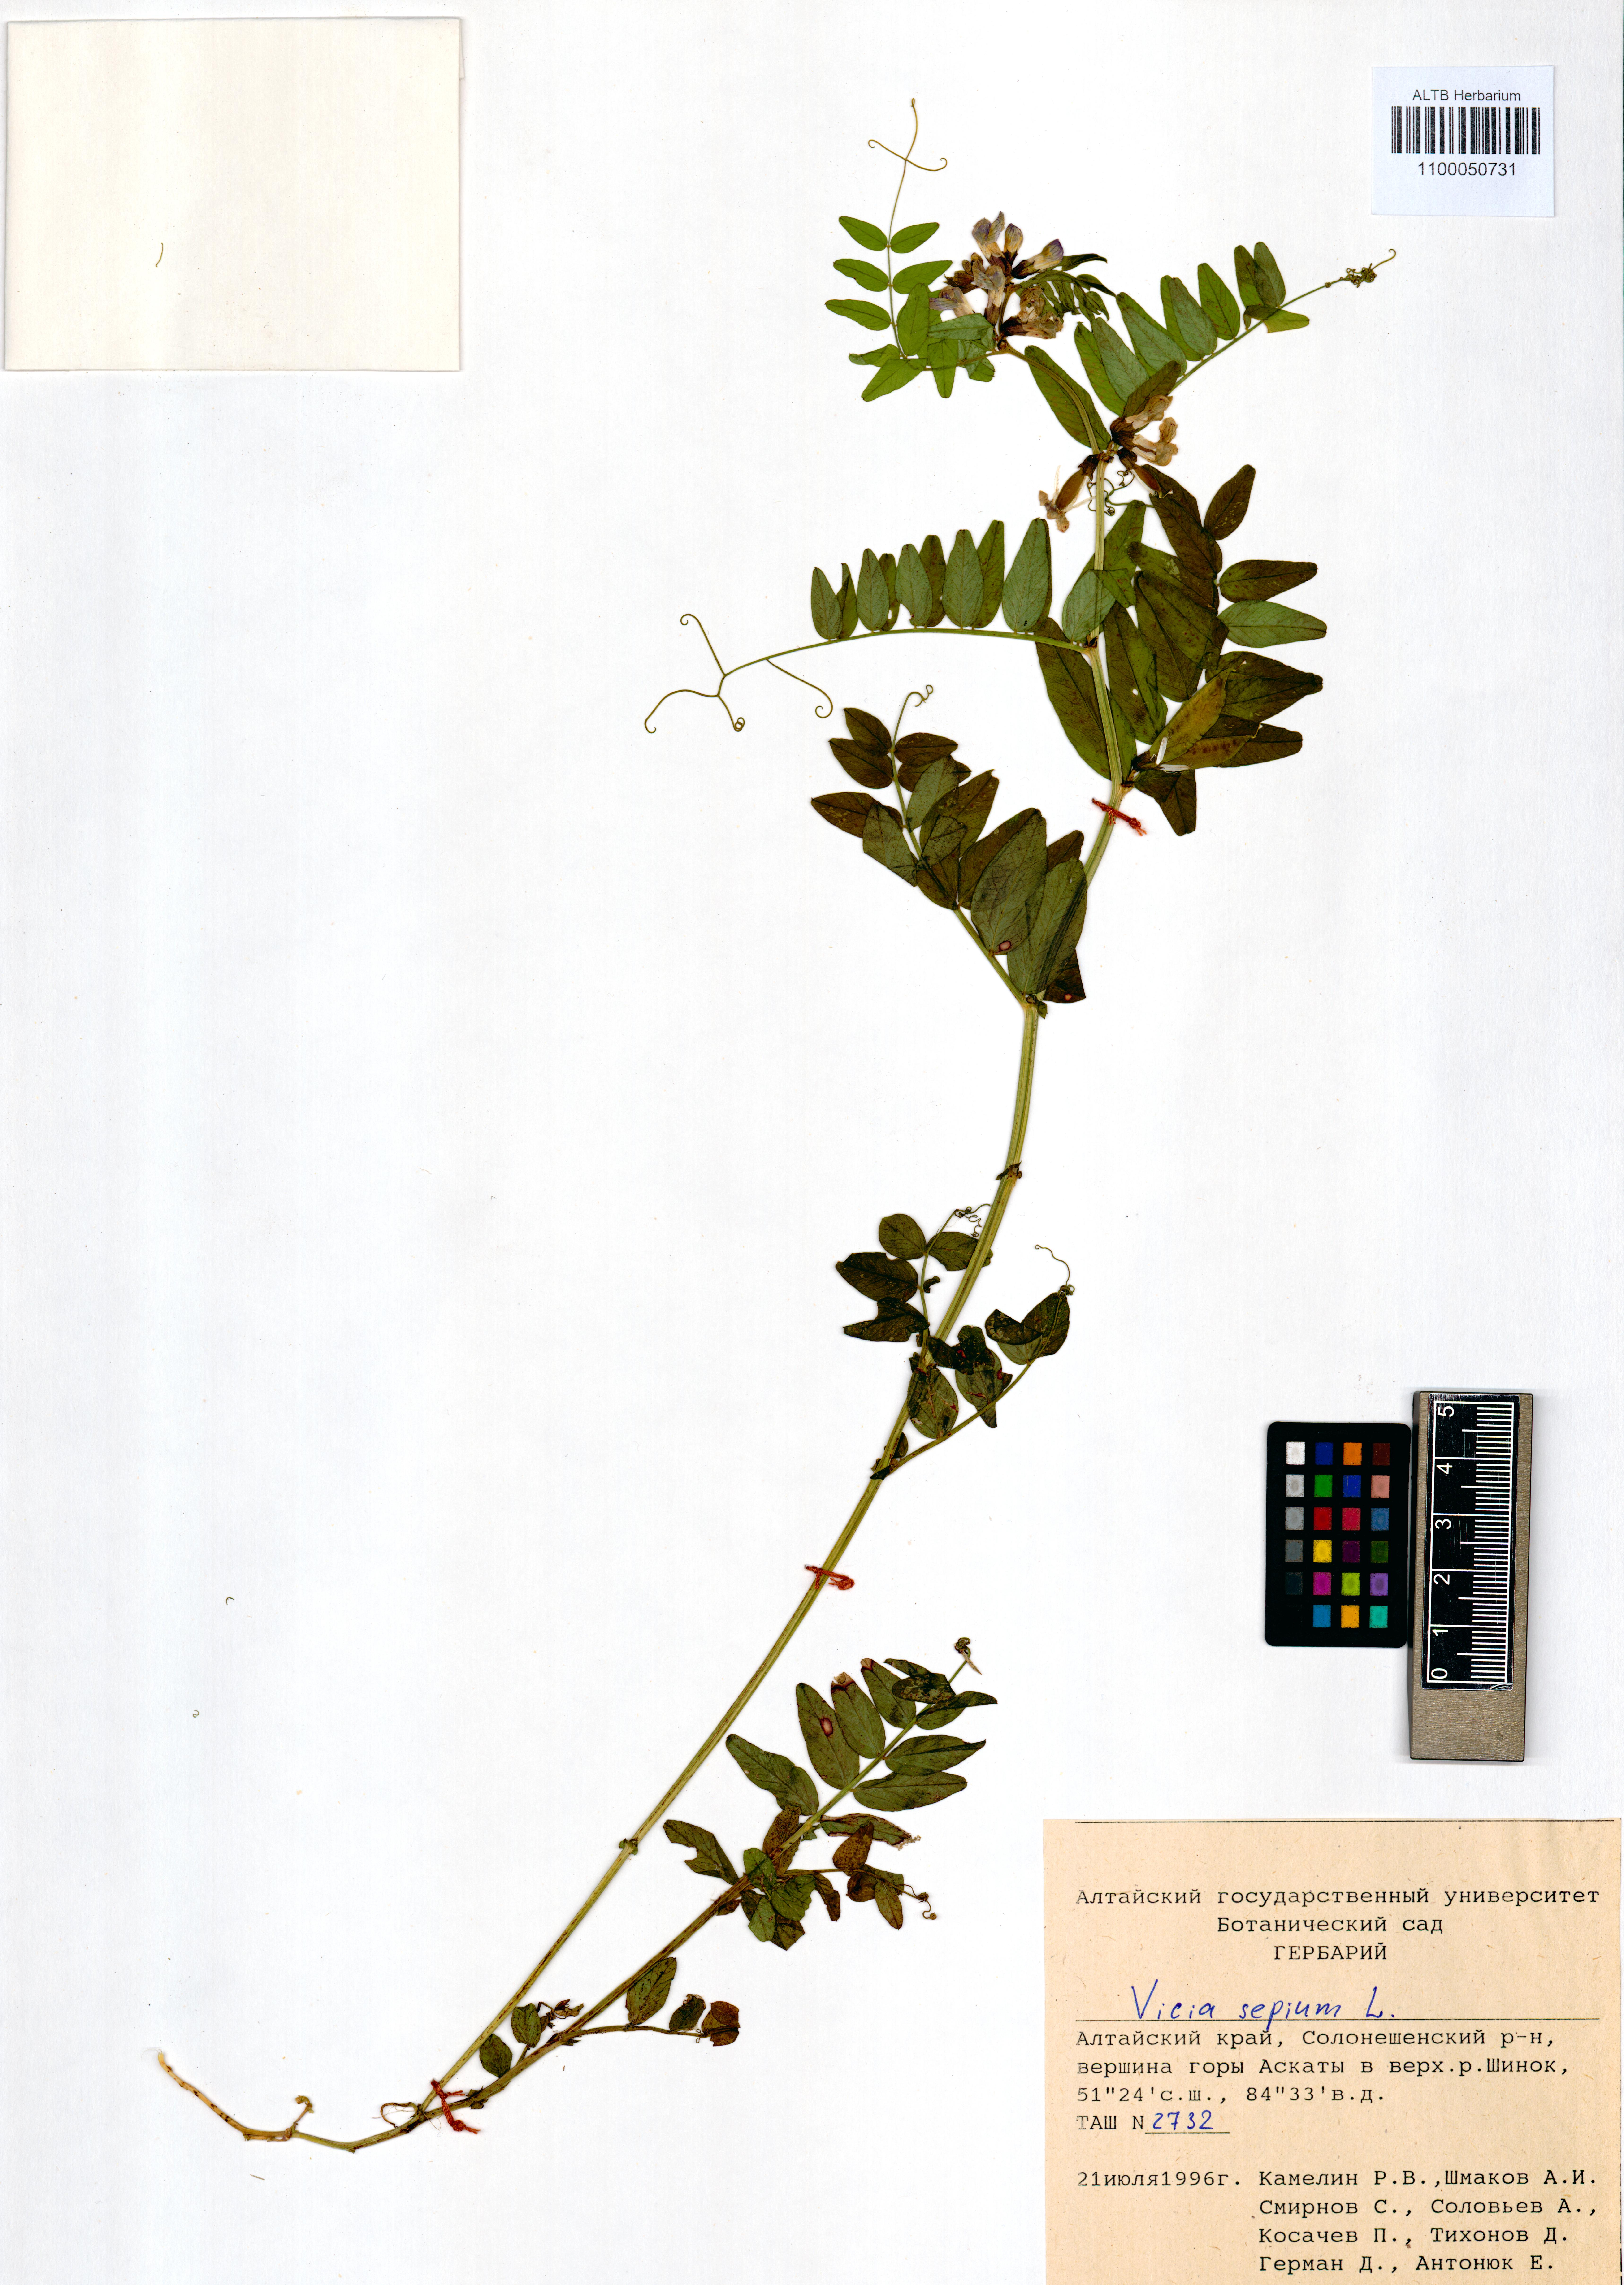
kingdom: Plantae
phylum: Tracheophyta
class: Magnoliopsida
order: Fabales
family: Fabaceae
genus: Vicia
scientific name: Vicia sepium
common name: Bush vetch
